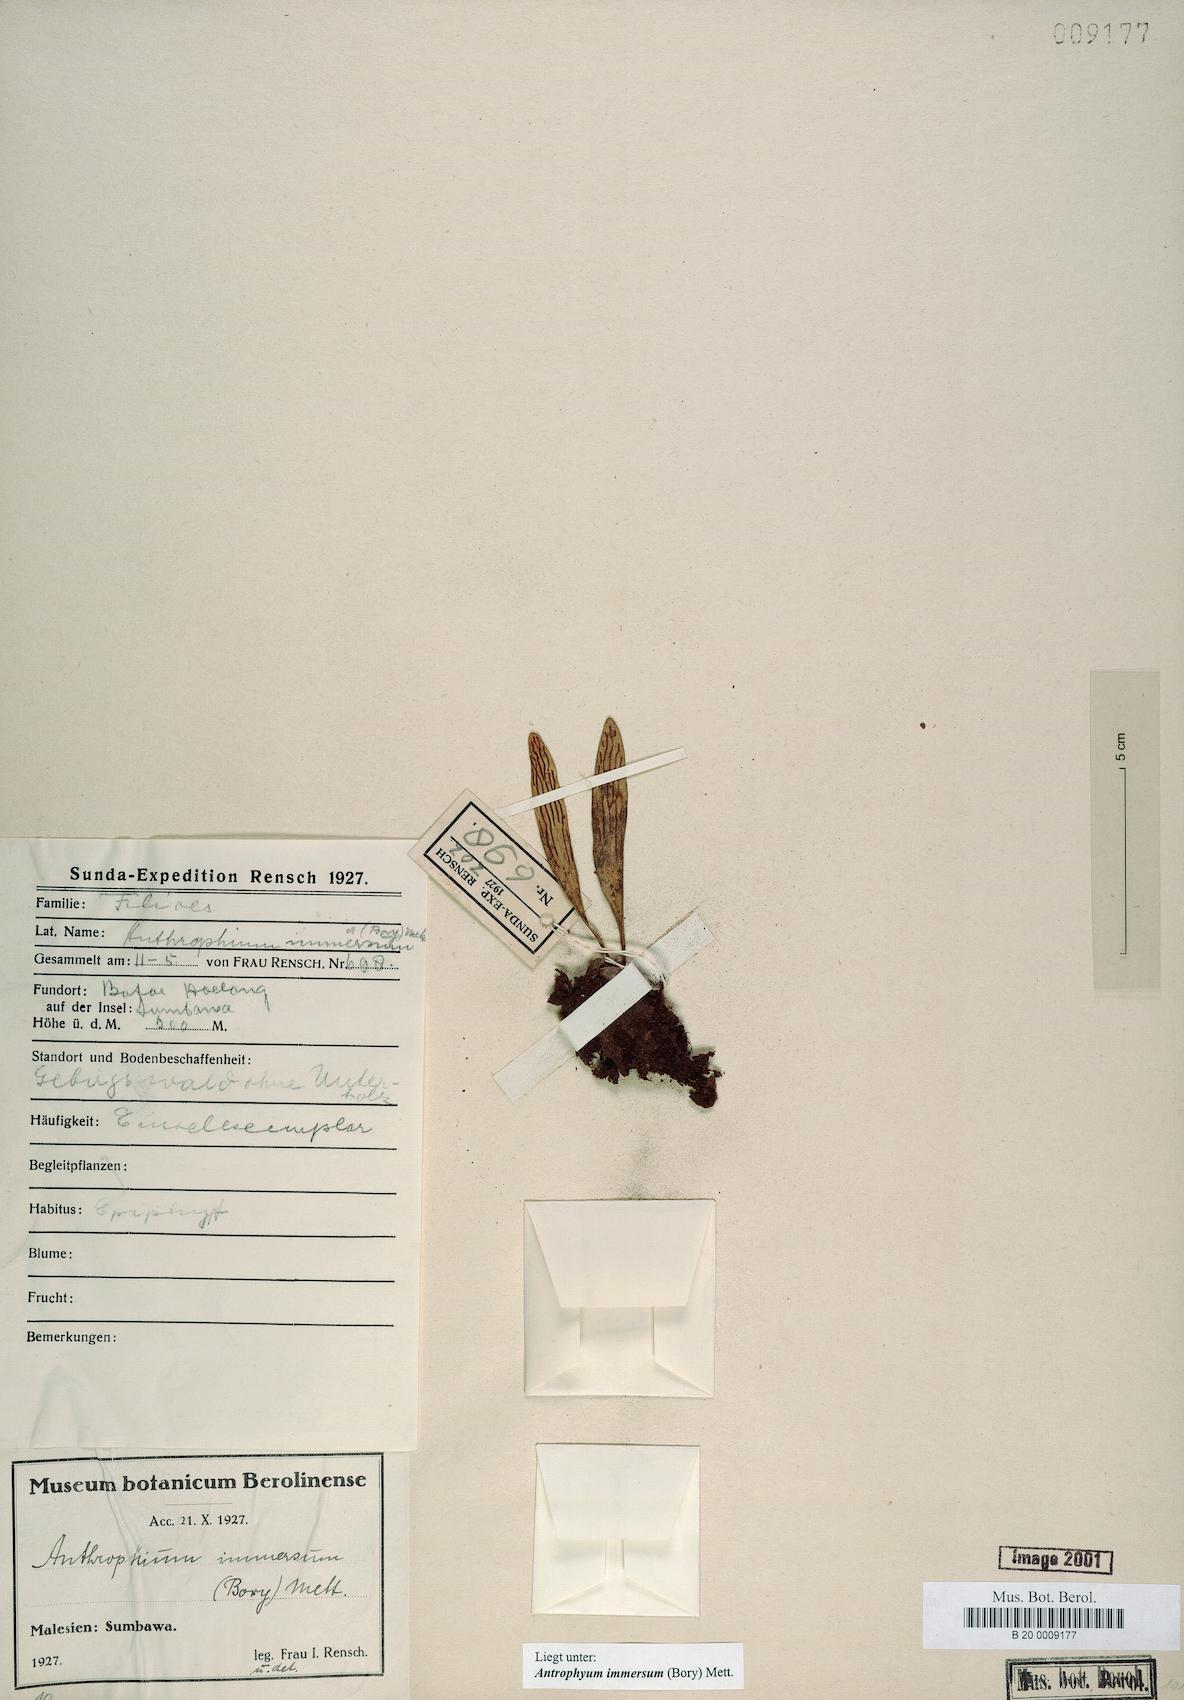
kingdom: Plantae
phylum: Tracheophyta
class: Polypodiopsida
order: Polypodiales
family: Pteridaceae
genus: Antrophyum
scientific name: Antrophyum parvulum
